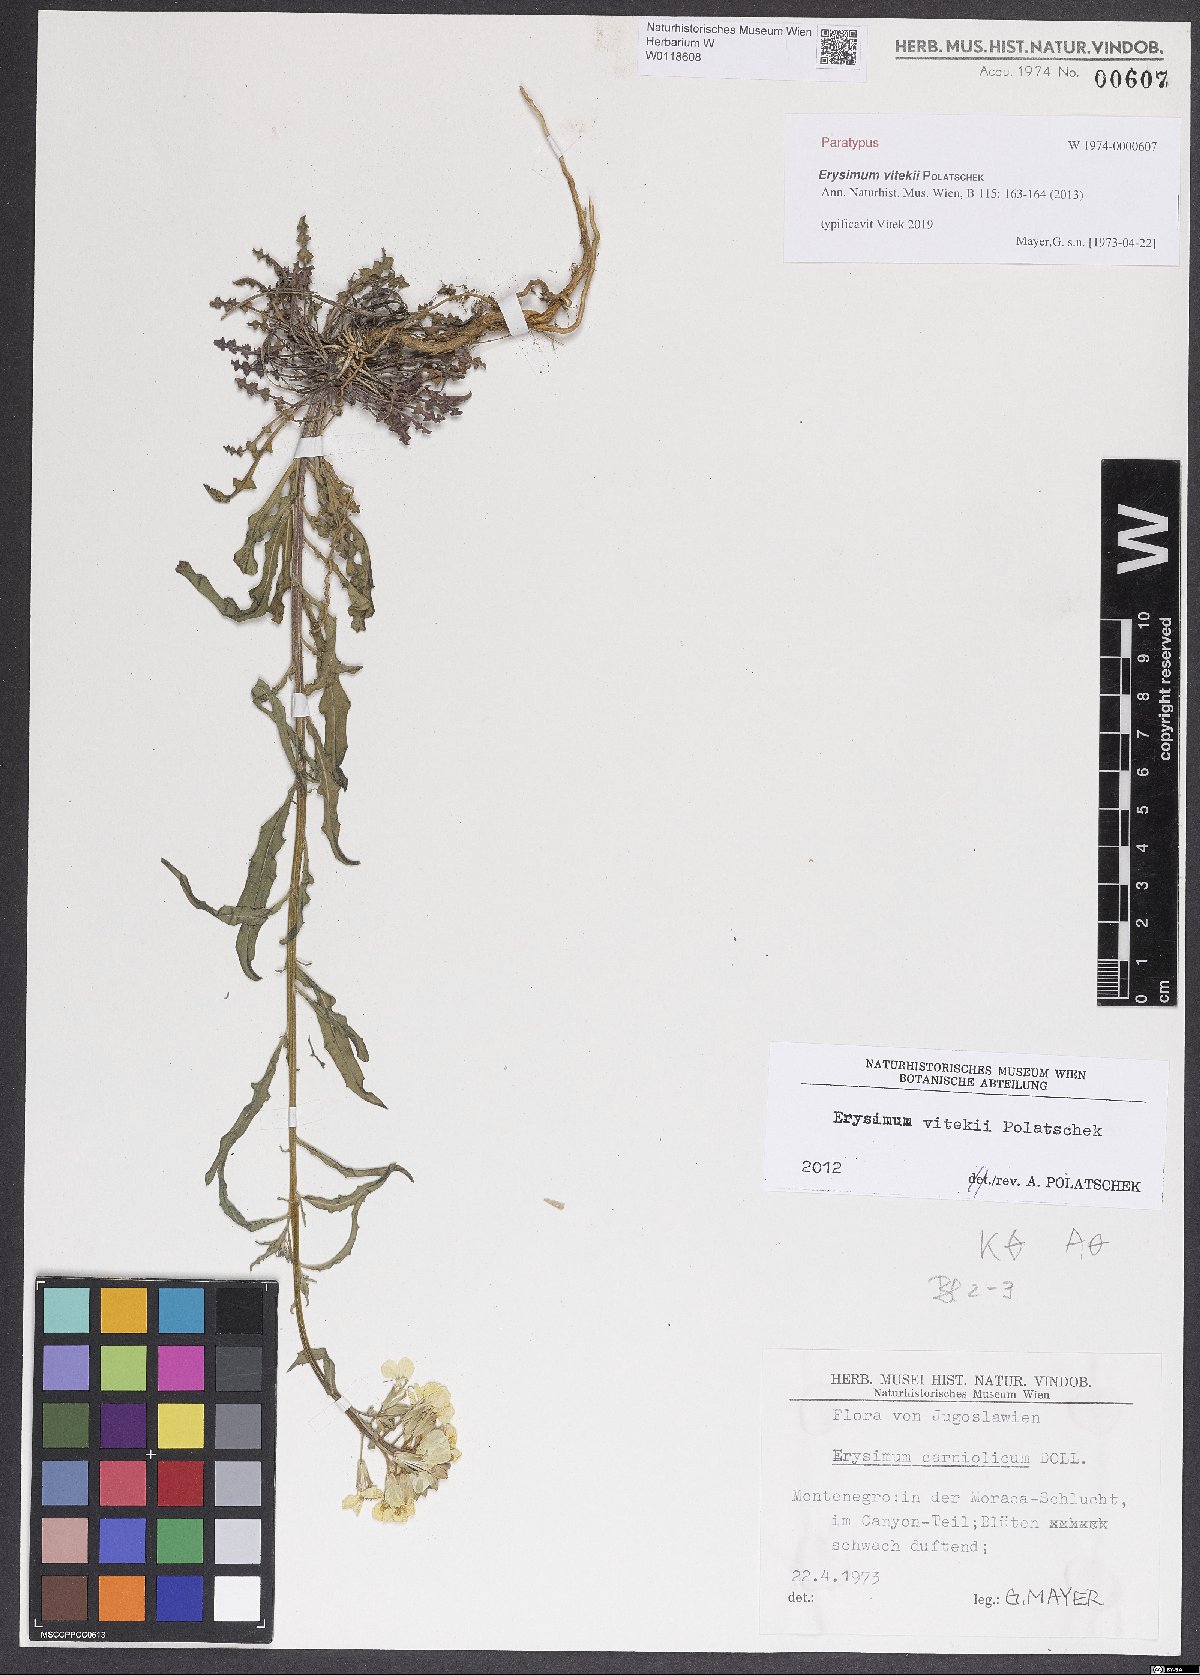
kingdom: Plantae
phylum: Tracheophyta
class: Magnoliopsida
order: Brassicales
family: Brassicaceae
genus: Erysimum
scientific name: Erysimum vitekii
